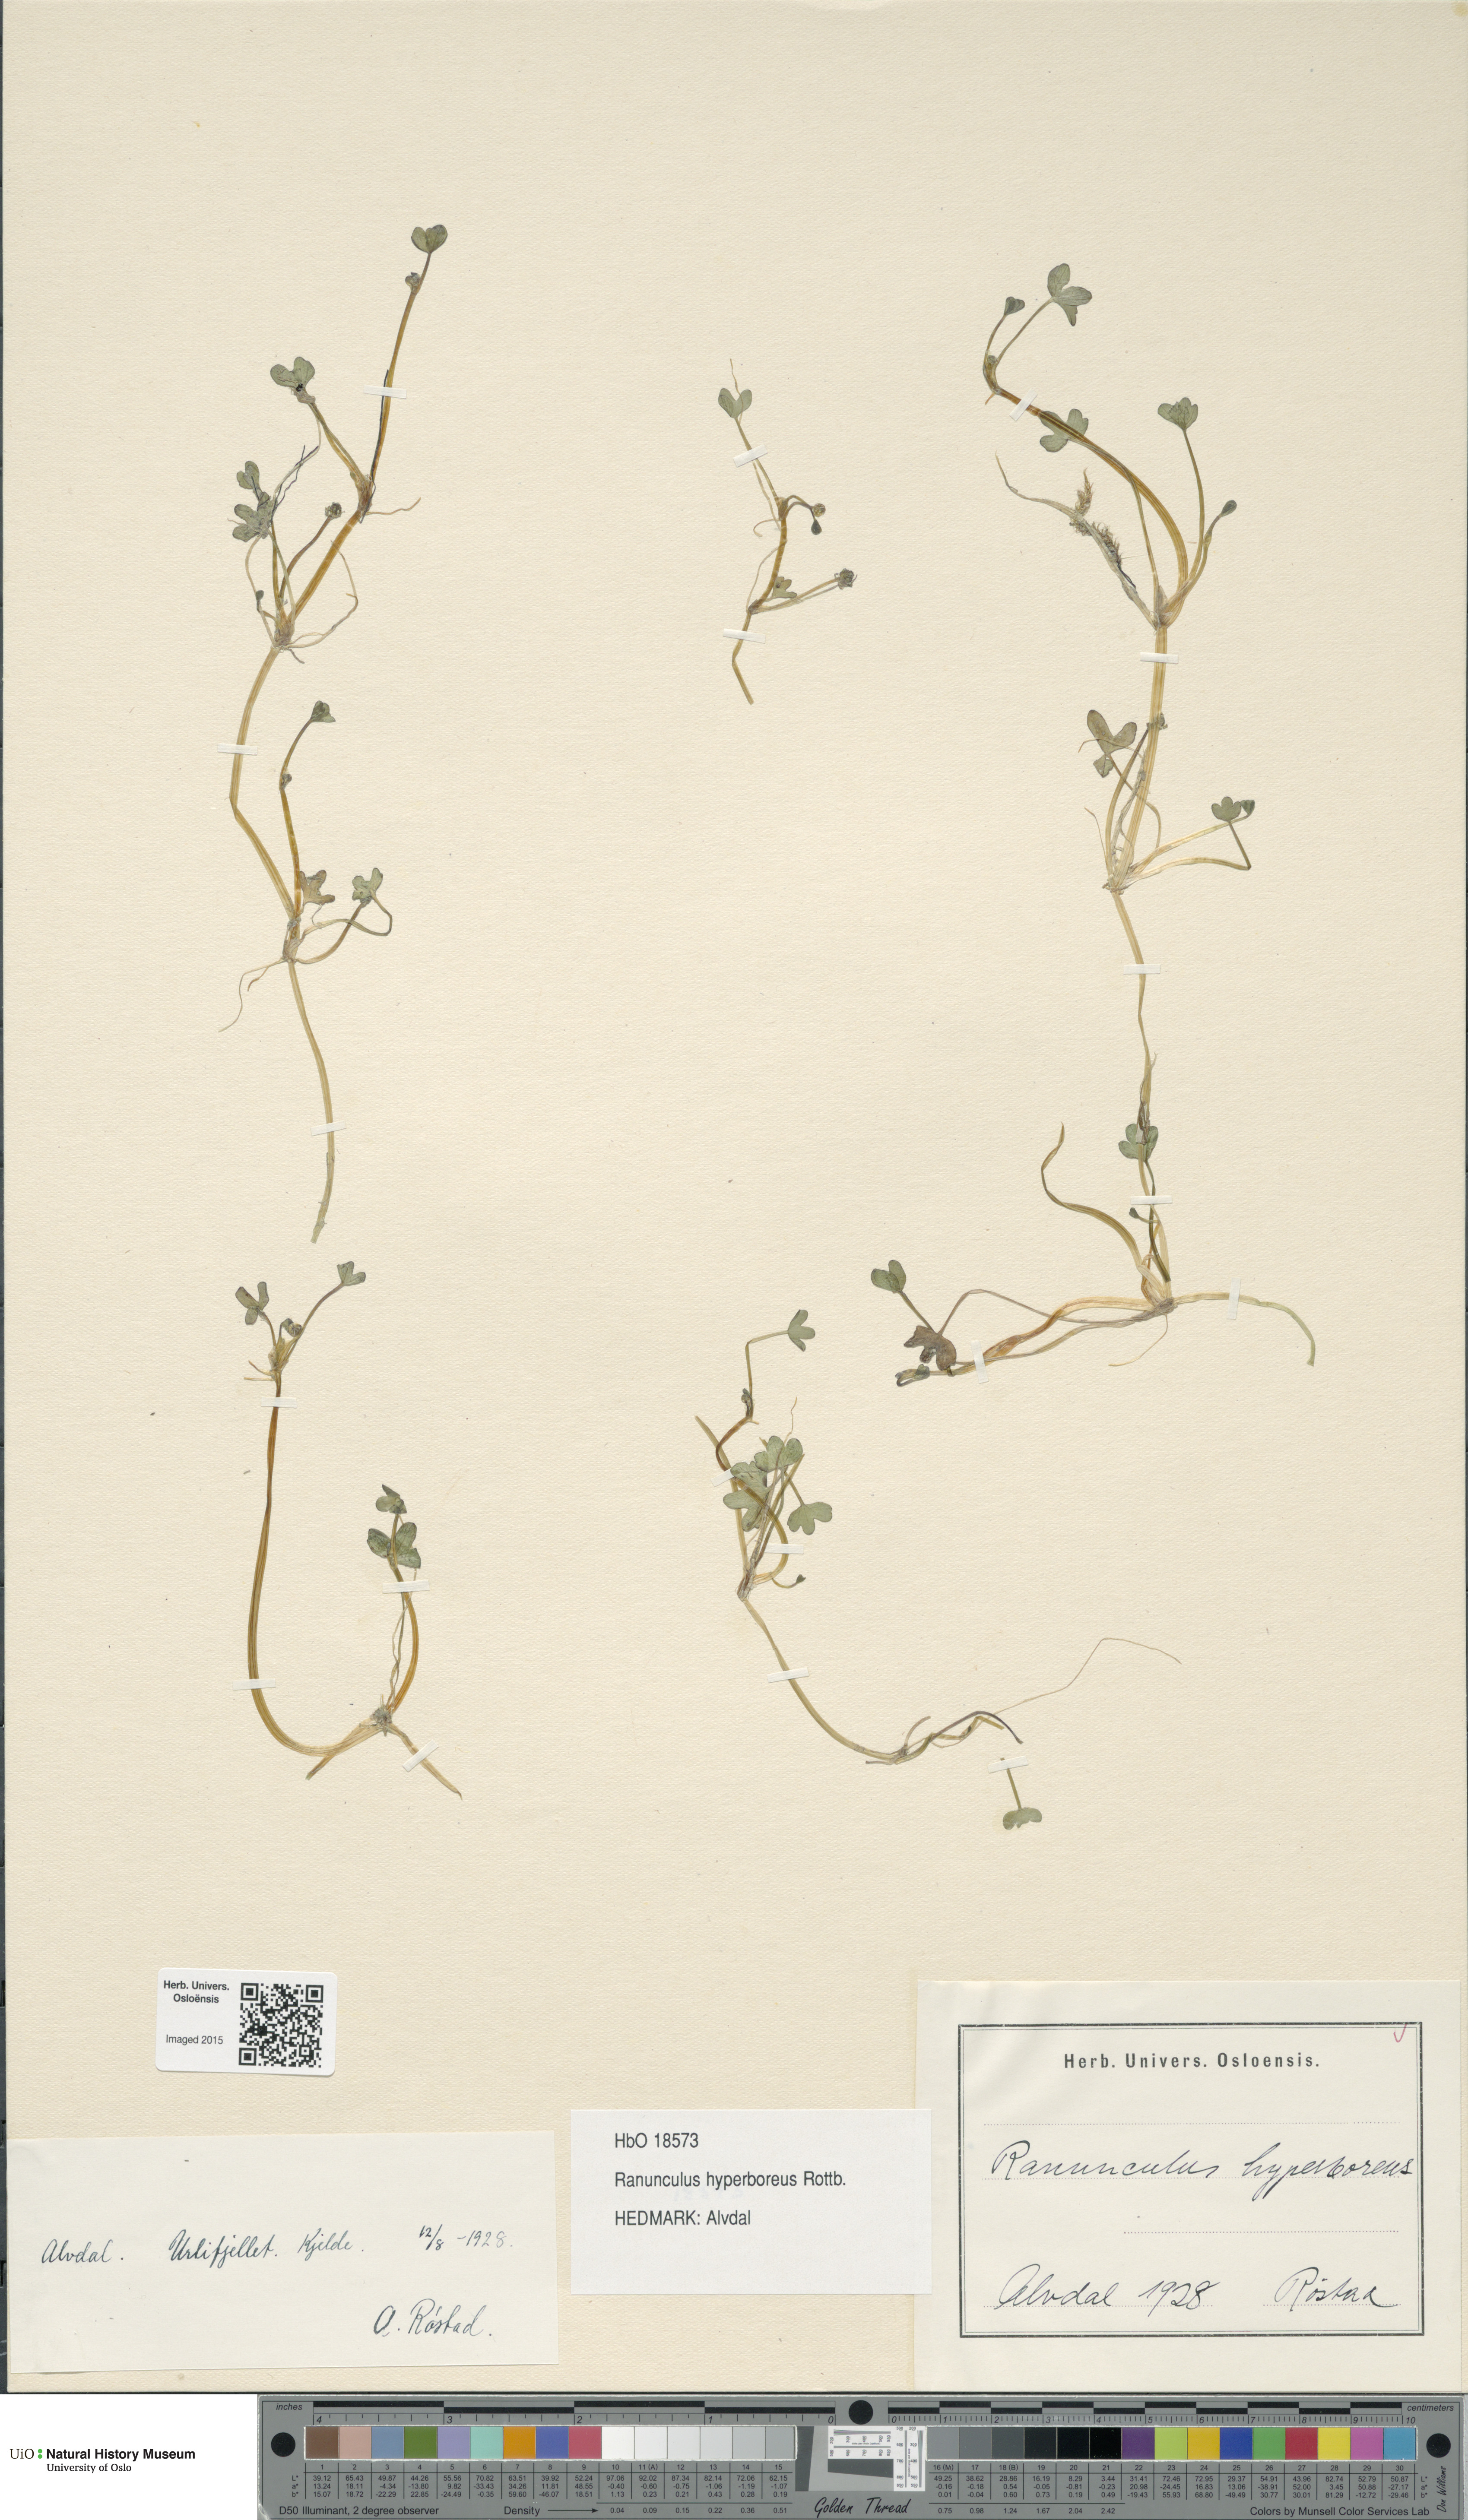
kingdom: Plantae
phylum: Tracheophyta
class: Magnoliopsida
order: Ranunculales
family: Ranunculaceae
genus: Ranunculus
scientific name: Ranunculus hyperboreus
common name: Arctic buttercup
